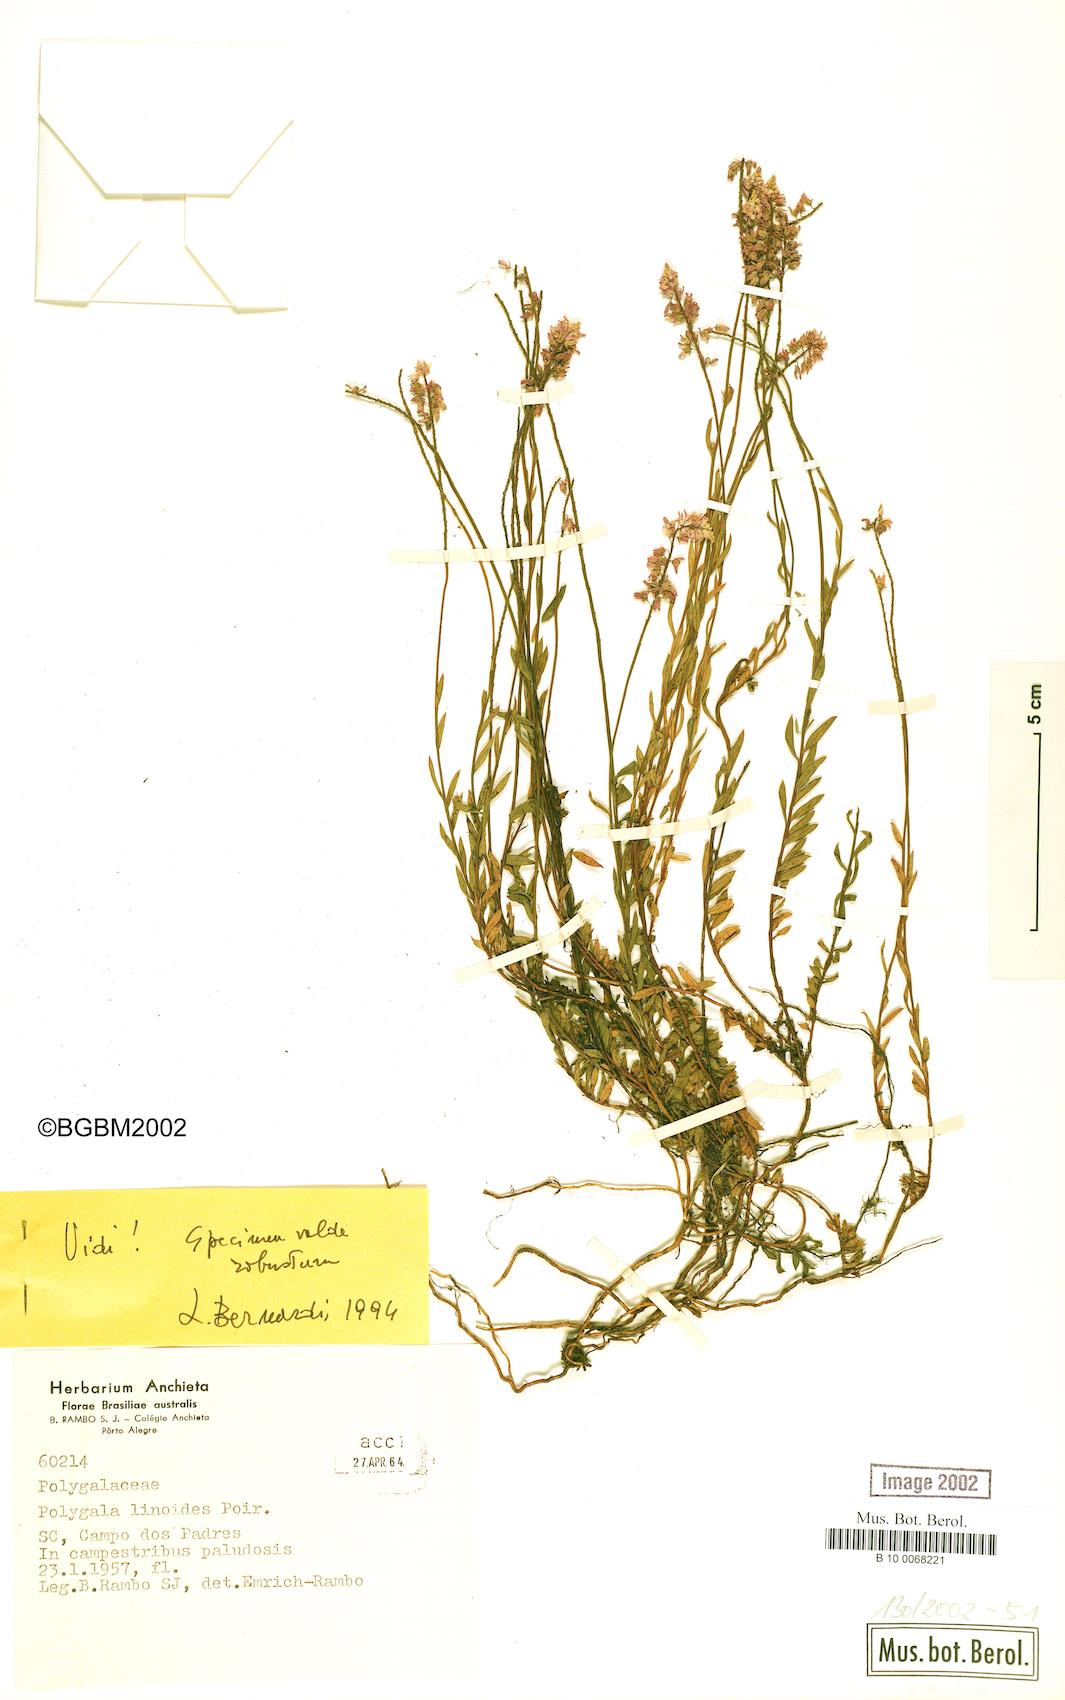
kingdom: Plantae
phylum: Tracheophyta
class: Magnoliopsida
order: Fabales
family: Polygalaceae
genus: Polygala
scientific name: Polygala linoides
